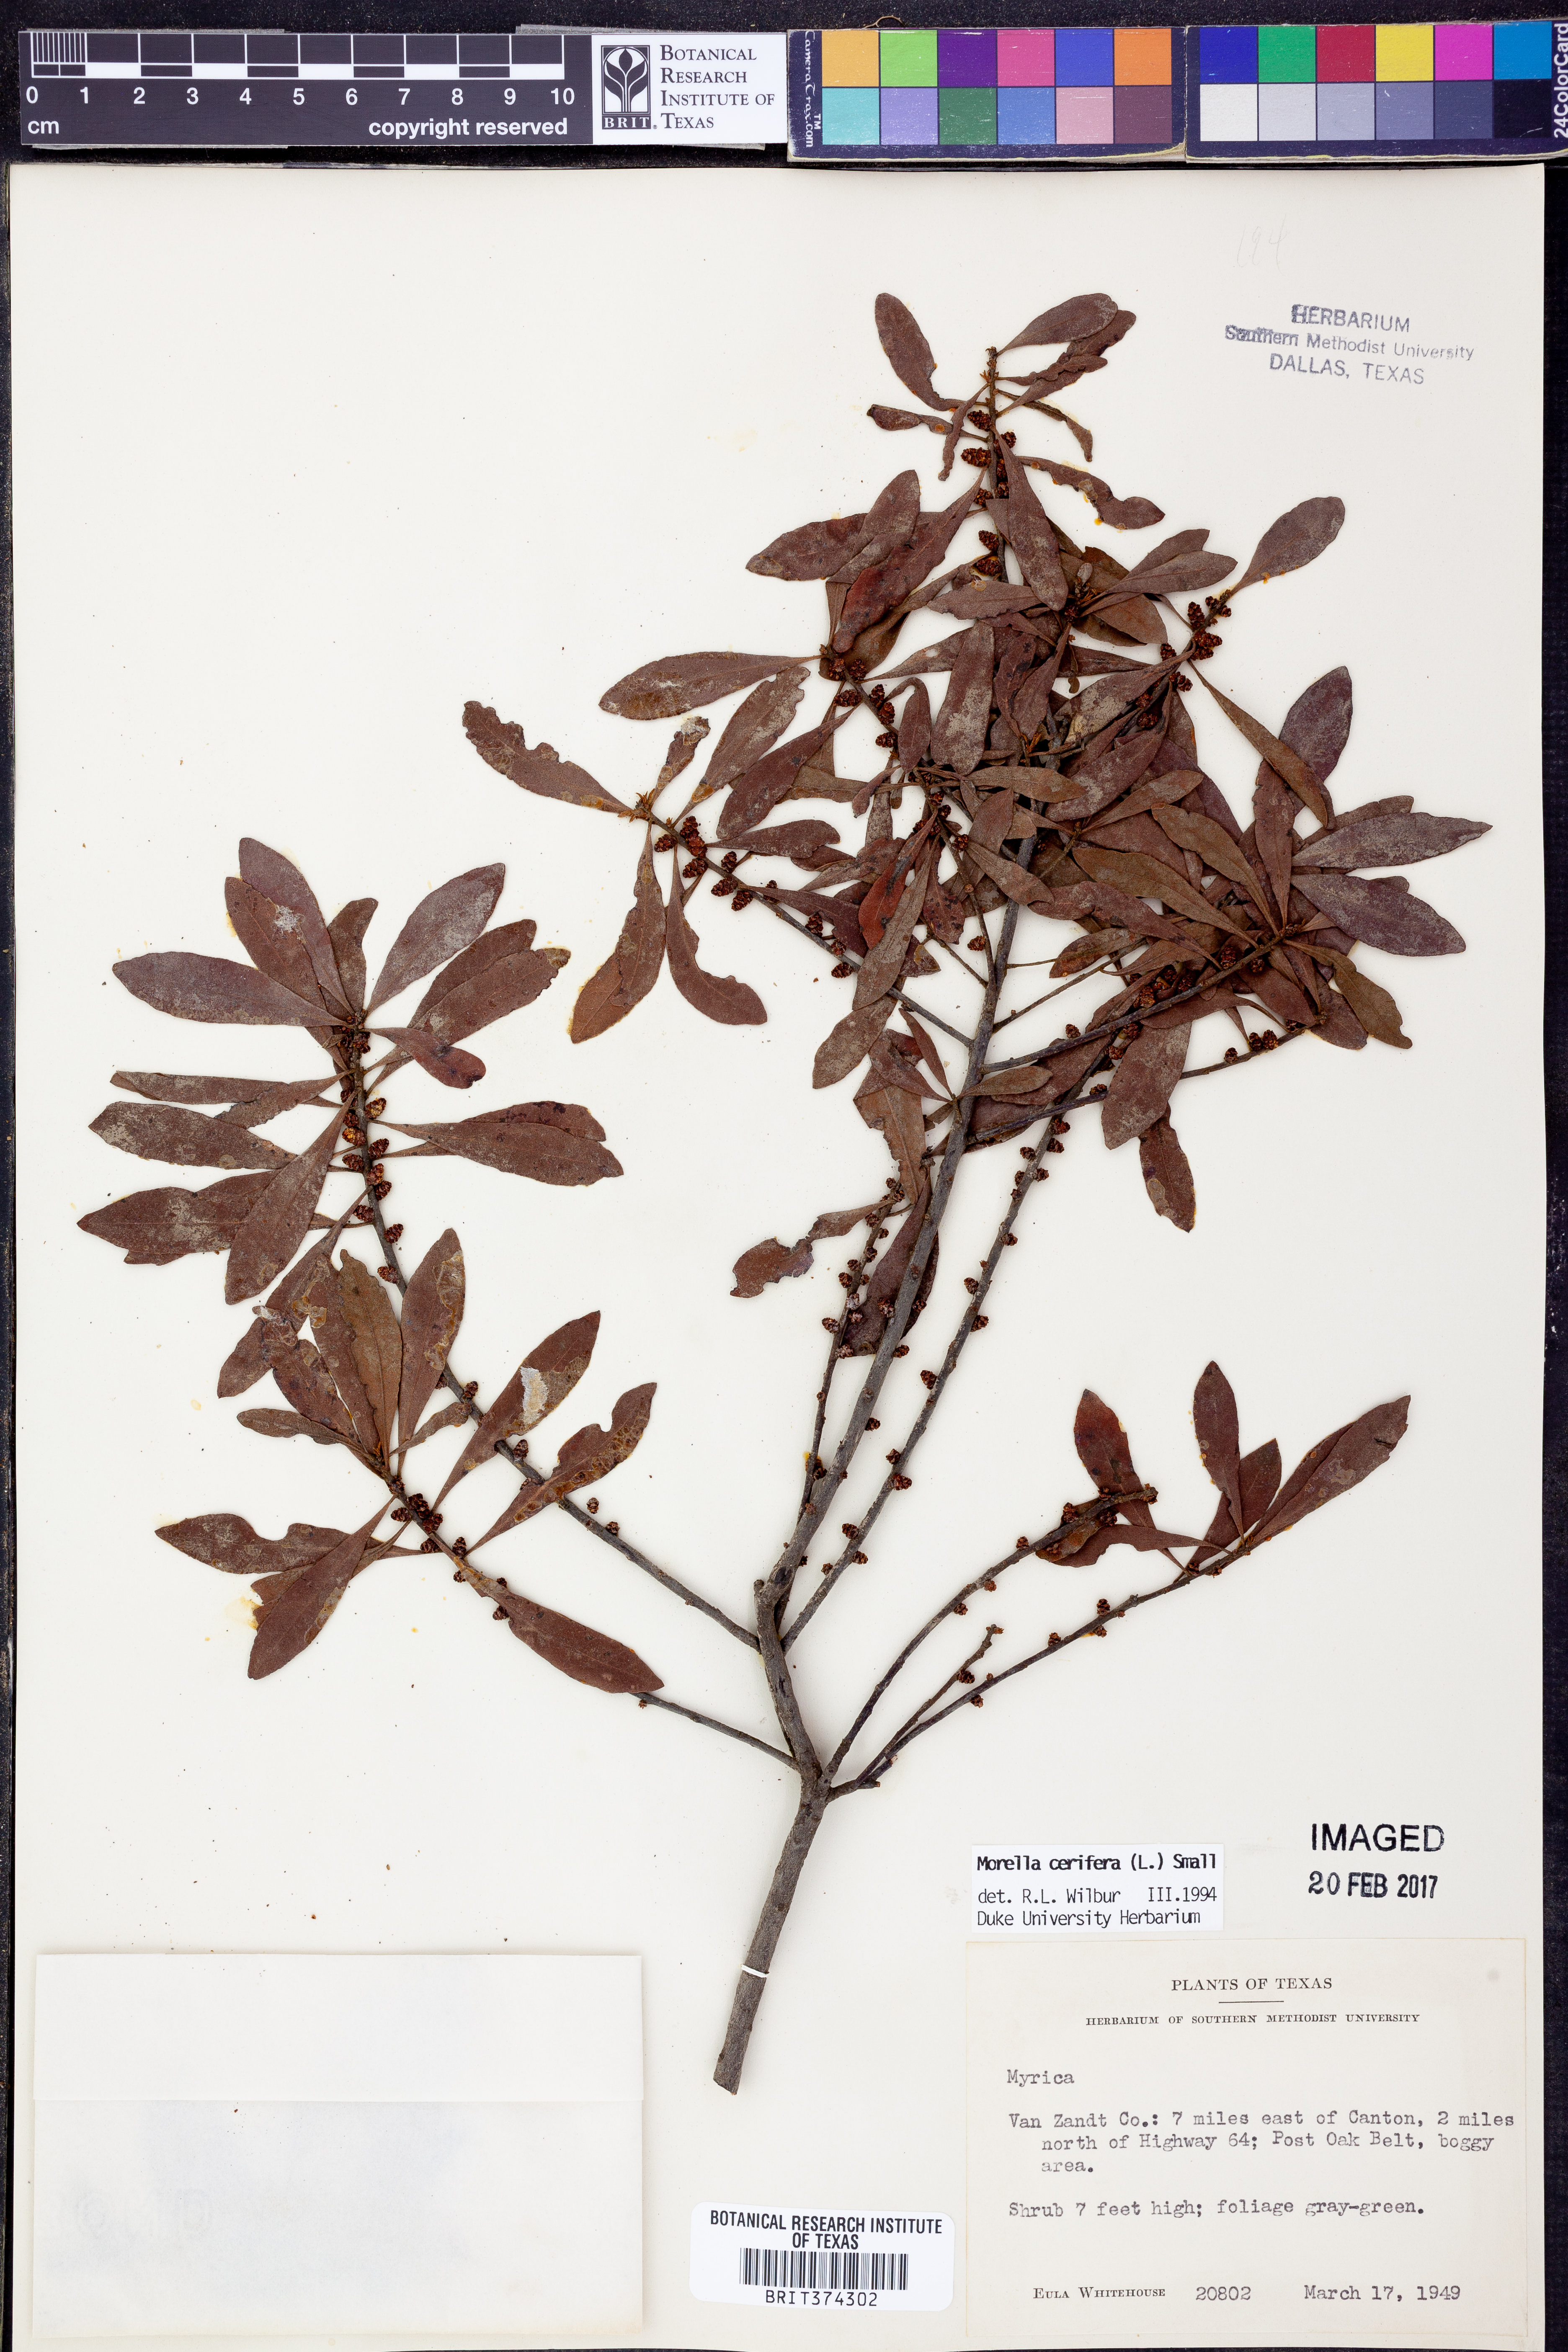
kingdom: Plantae
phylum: Tracheophyta
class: Magnoliopsida
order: Fagales
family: Myricaceae
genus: Morella
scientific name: Morella cerifera
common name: Wax myrtle
